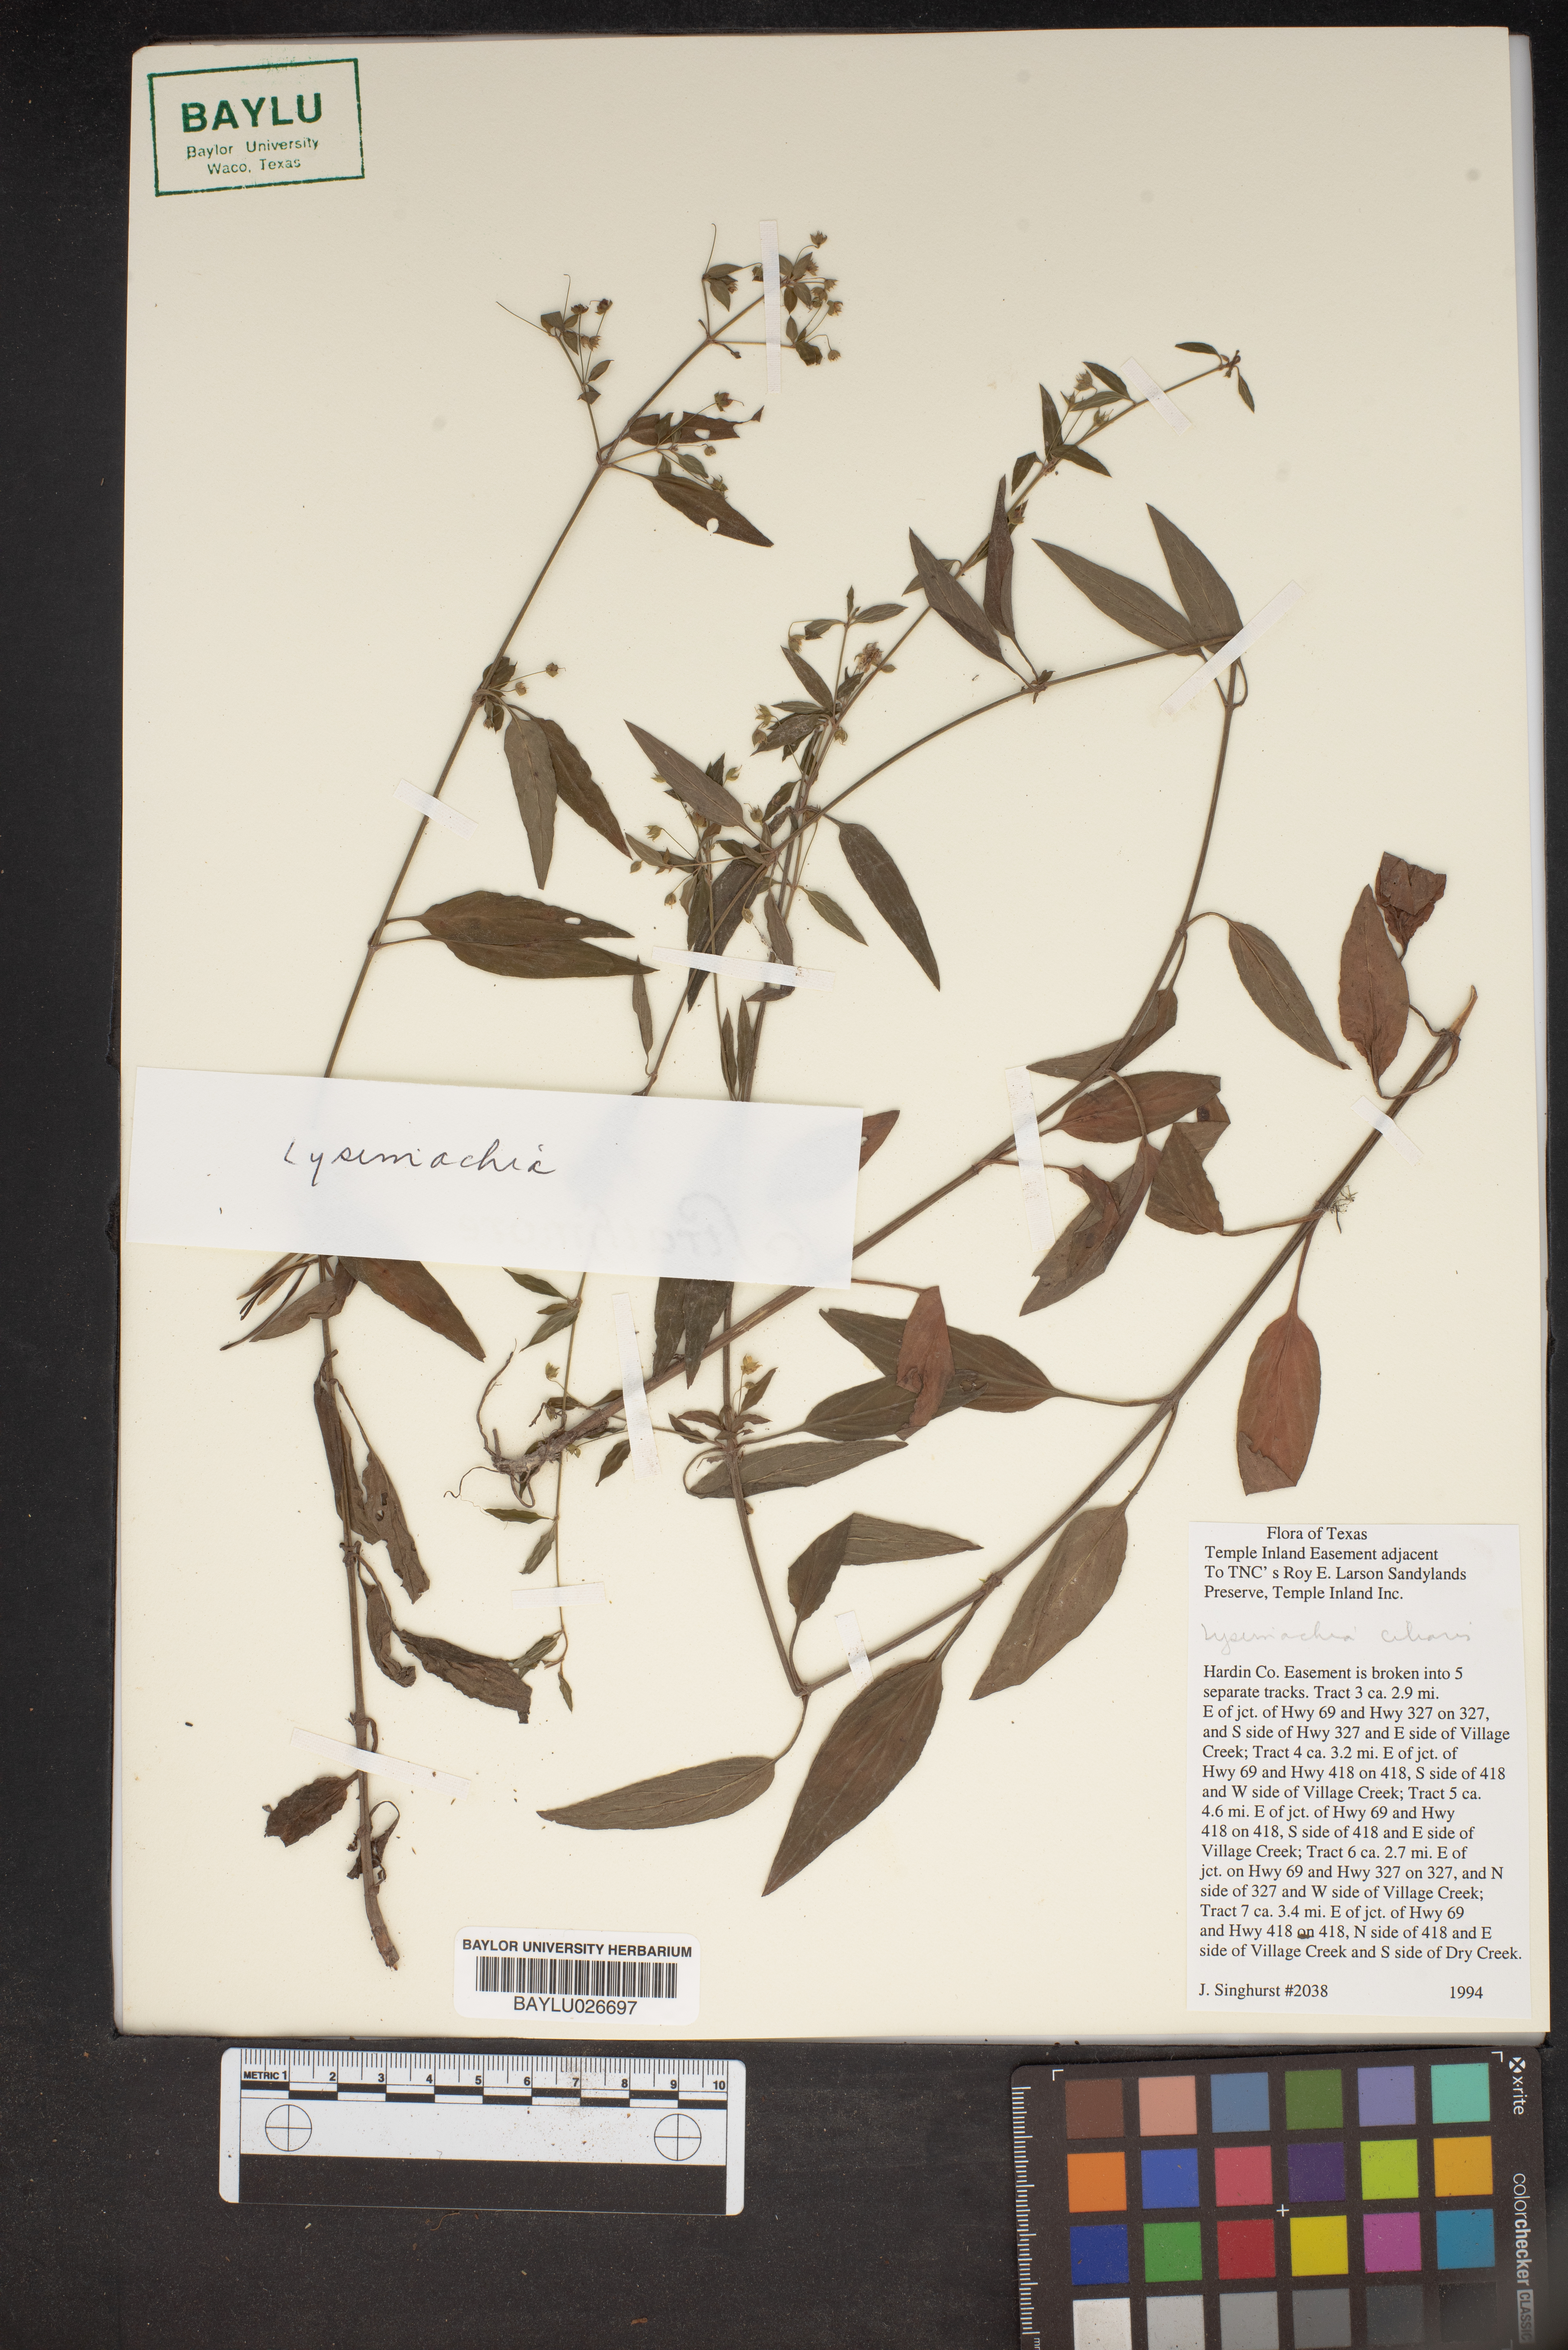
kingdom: Plantae
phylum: Tracheophyta
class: Magnoliopsida
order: Ericales
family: Primulaceae
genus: Lysimachia
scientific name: Lysimachia
